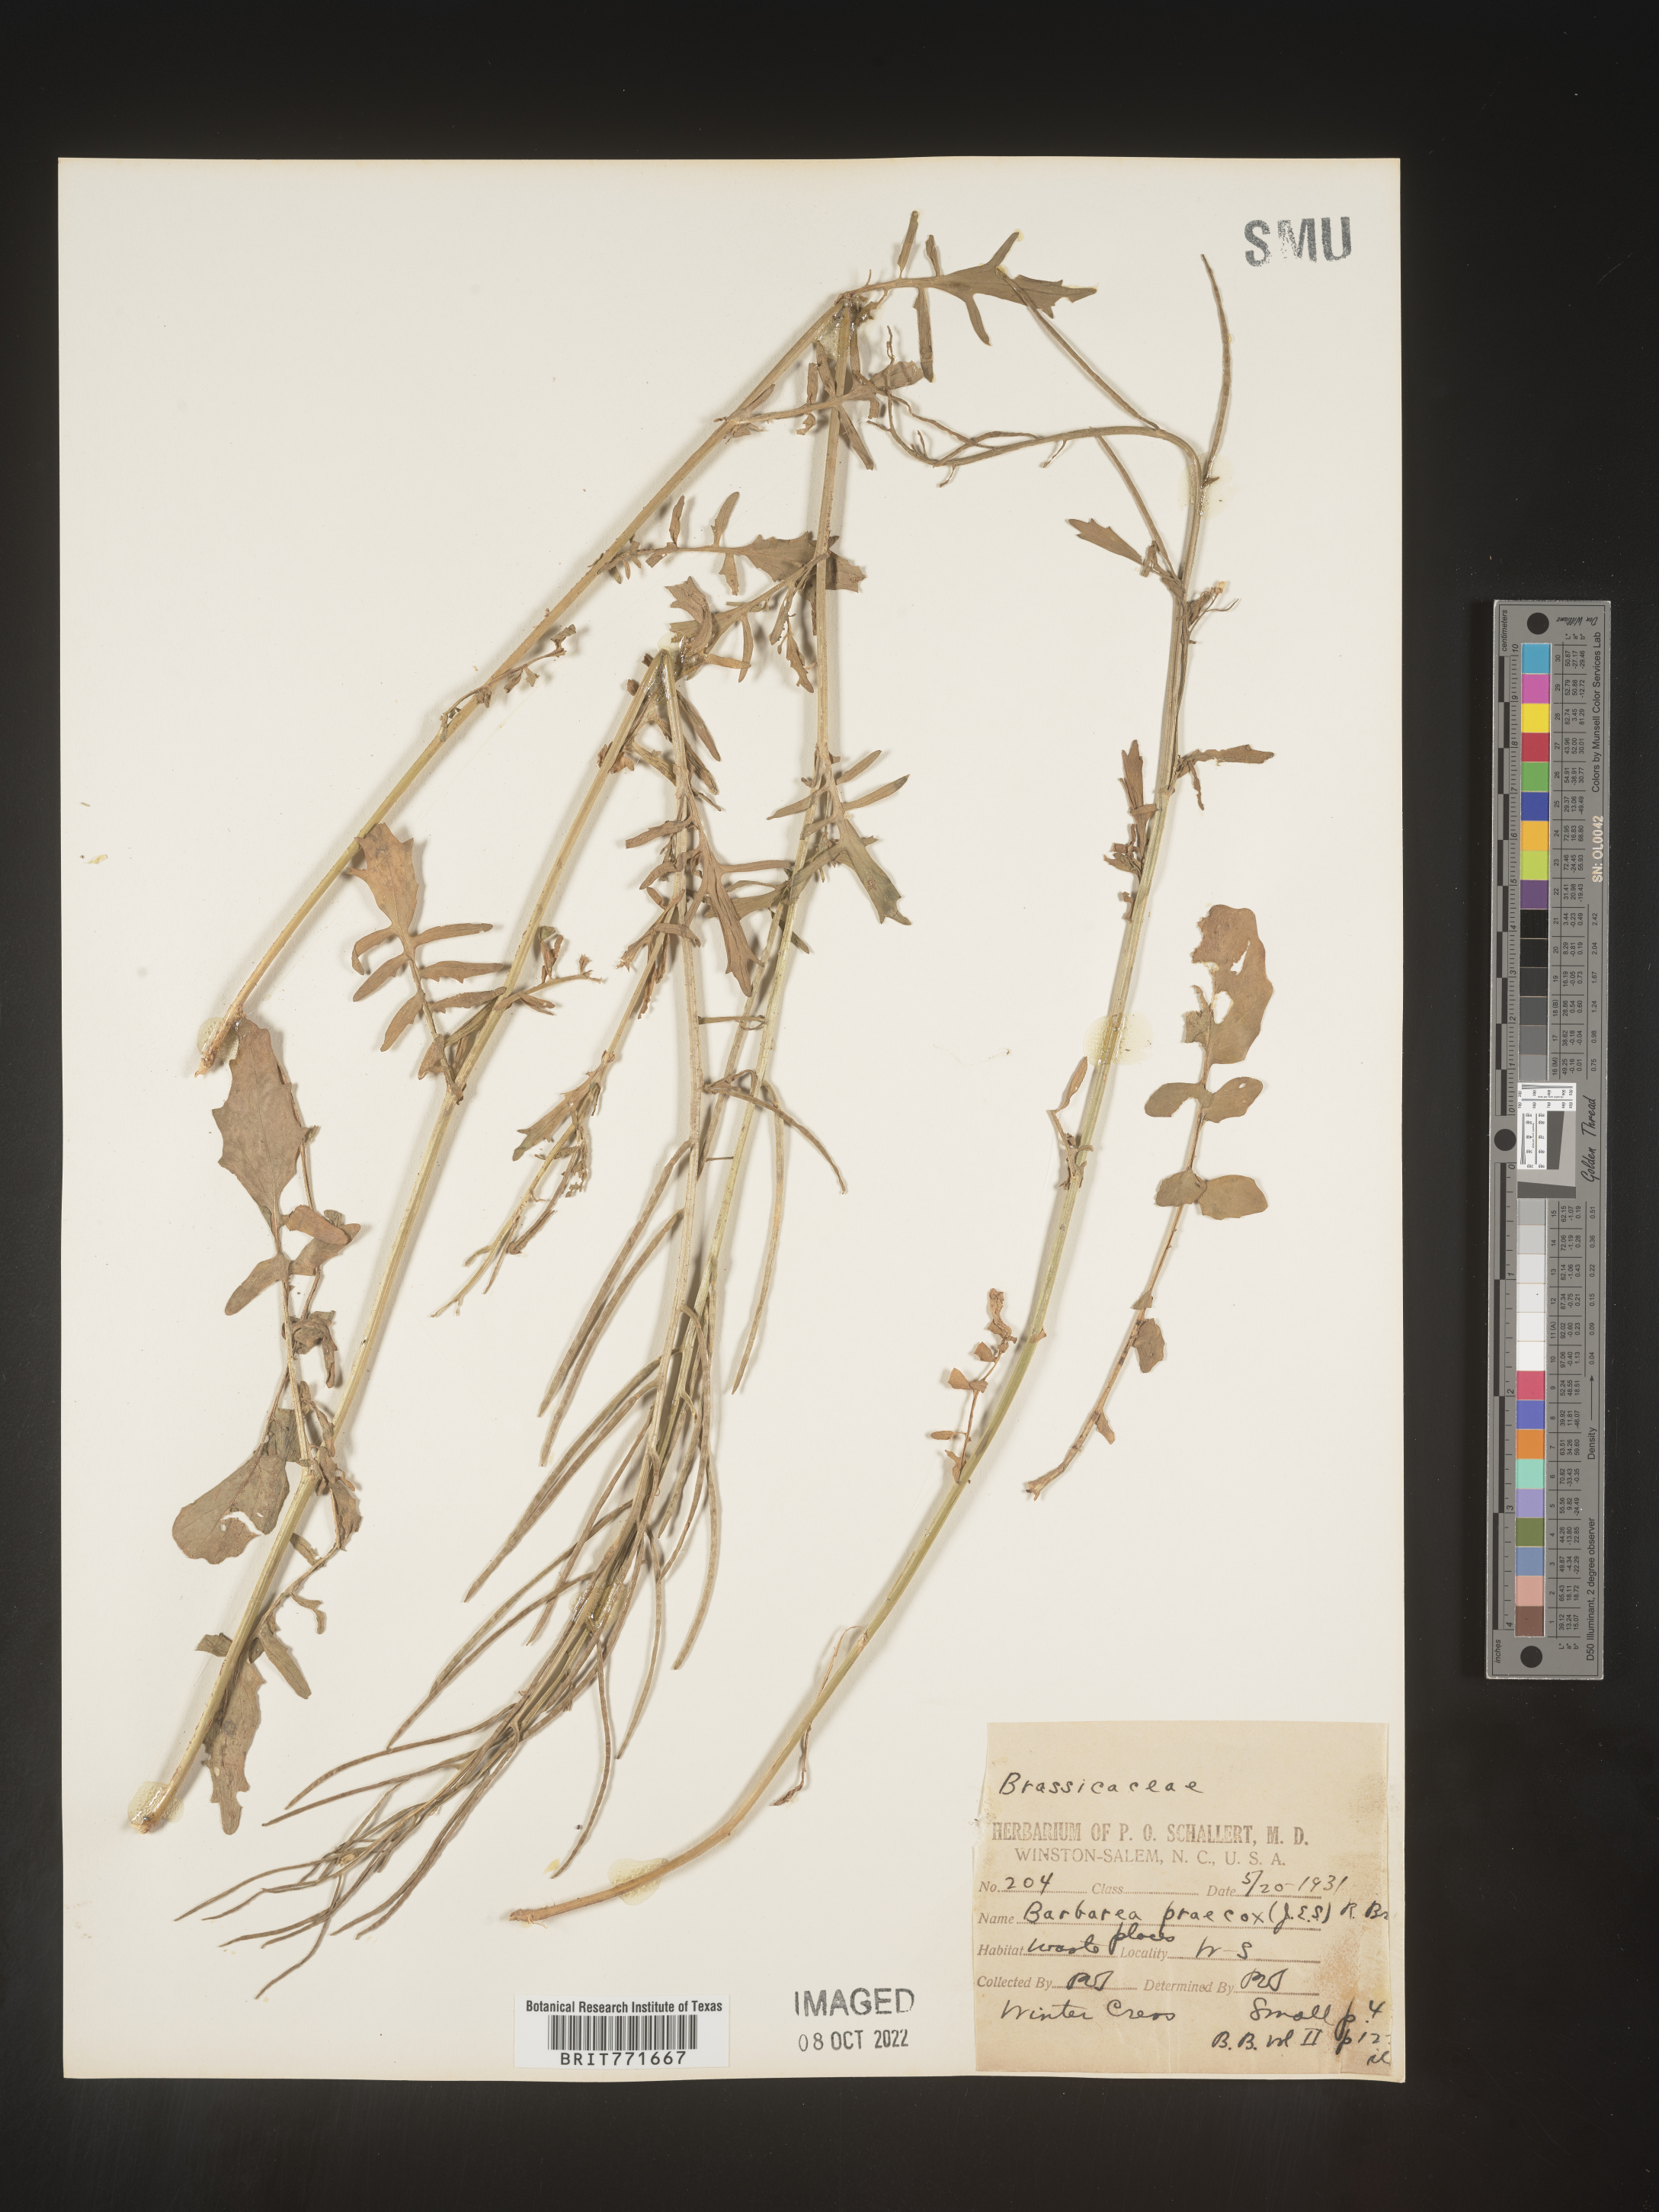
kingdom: Plantae
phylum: Tracheophyta
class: Magnoliopsida
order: Brassicales
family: Brassicaceae
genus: Barbarea
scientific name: Barbarea
